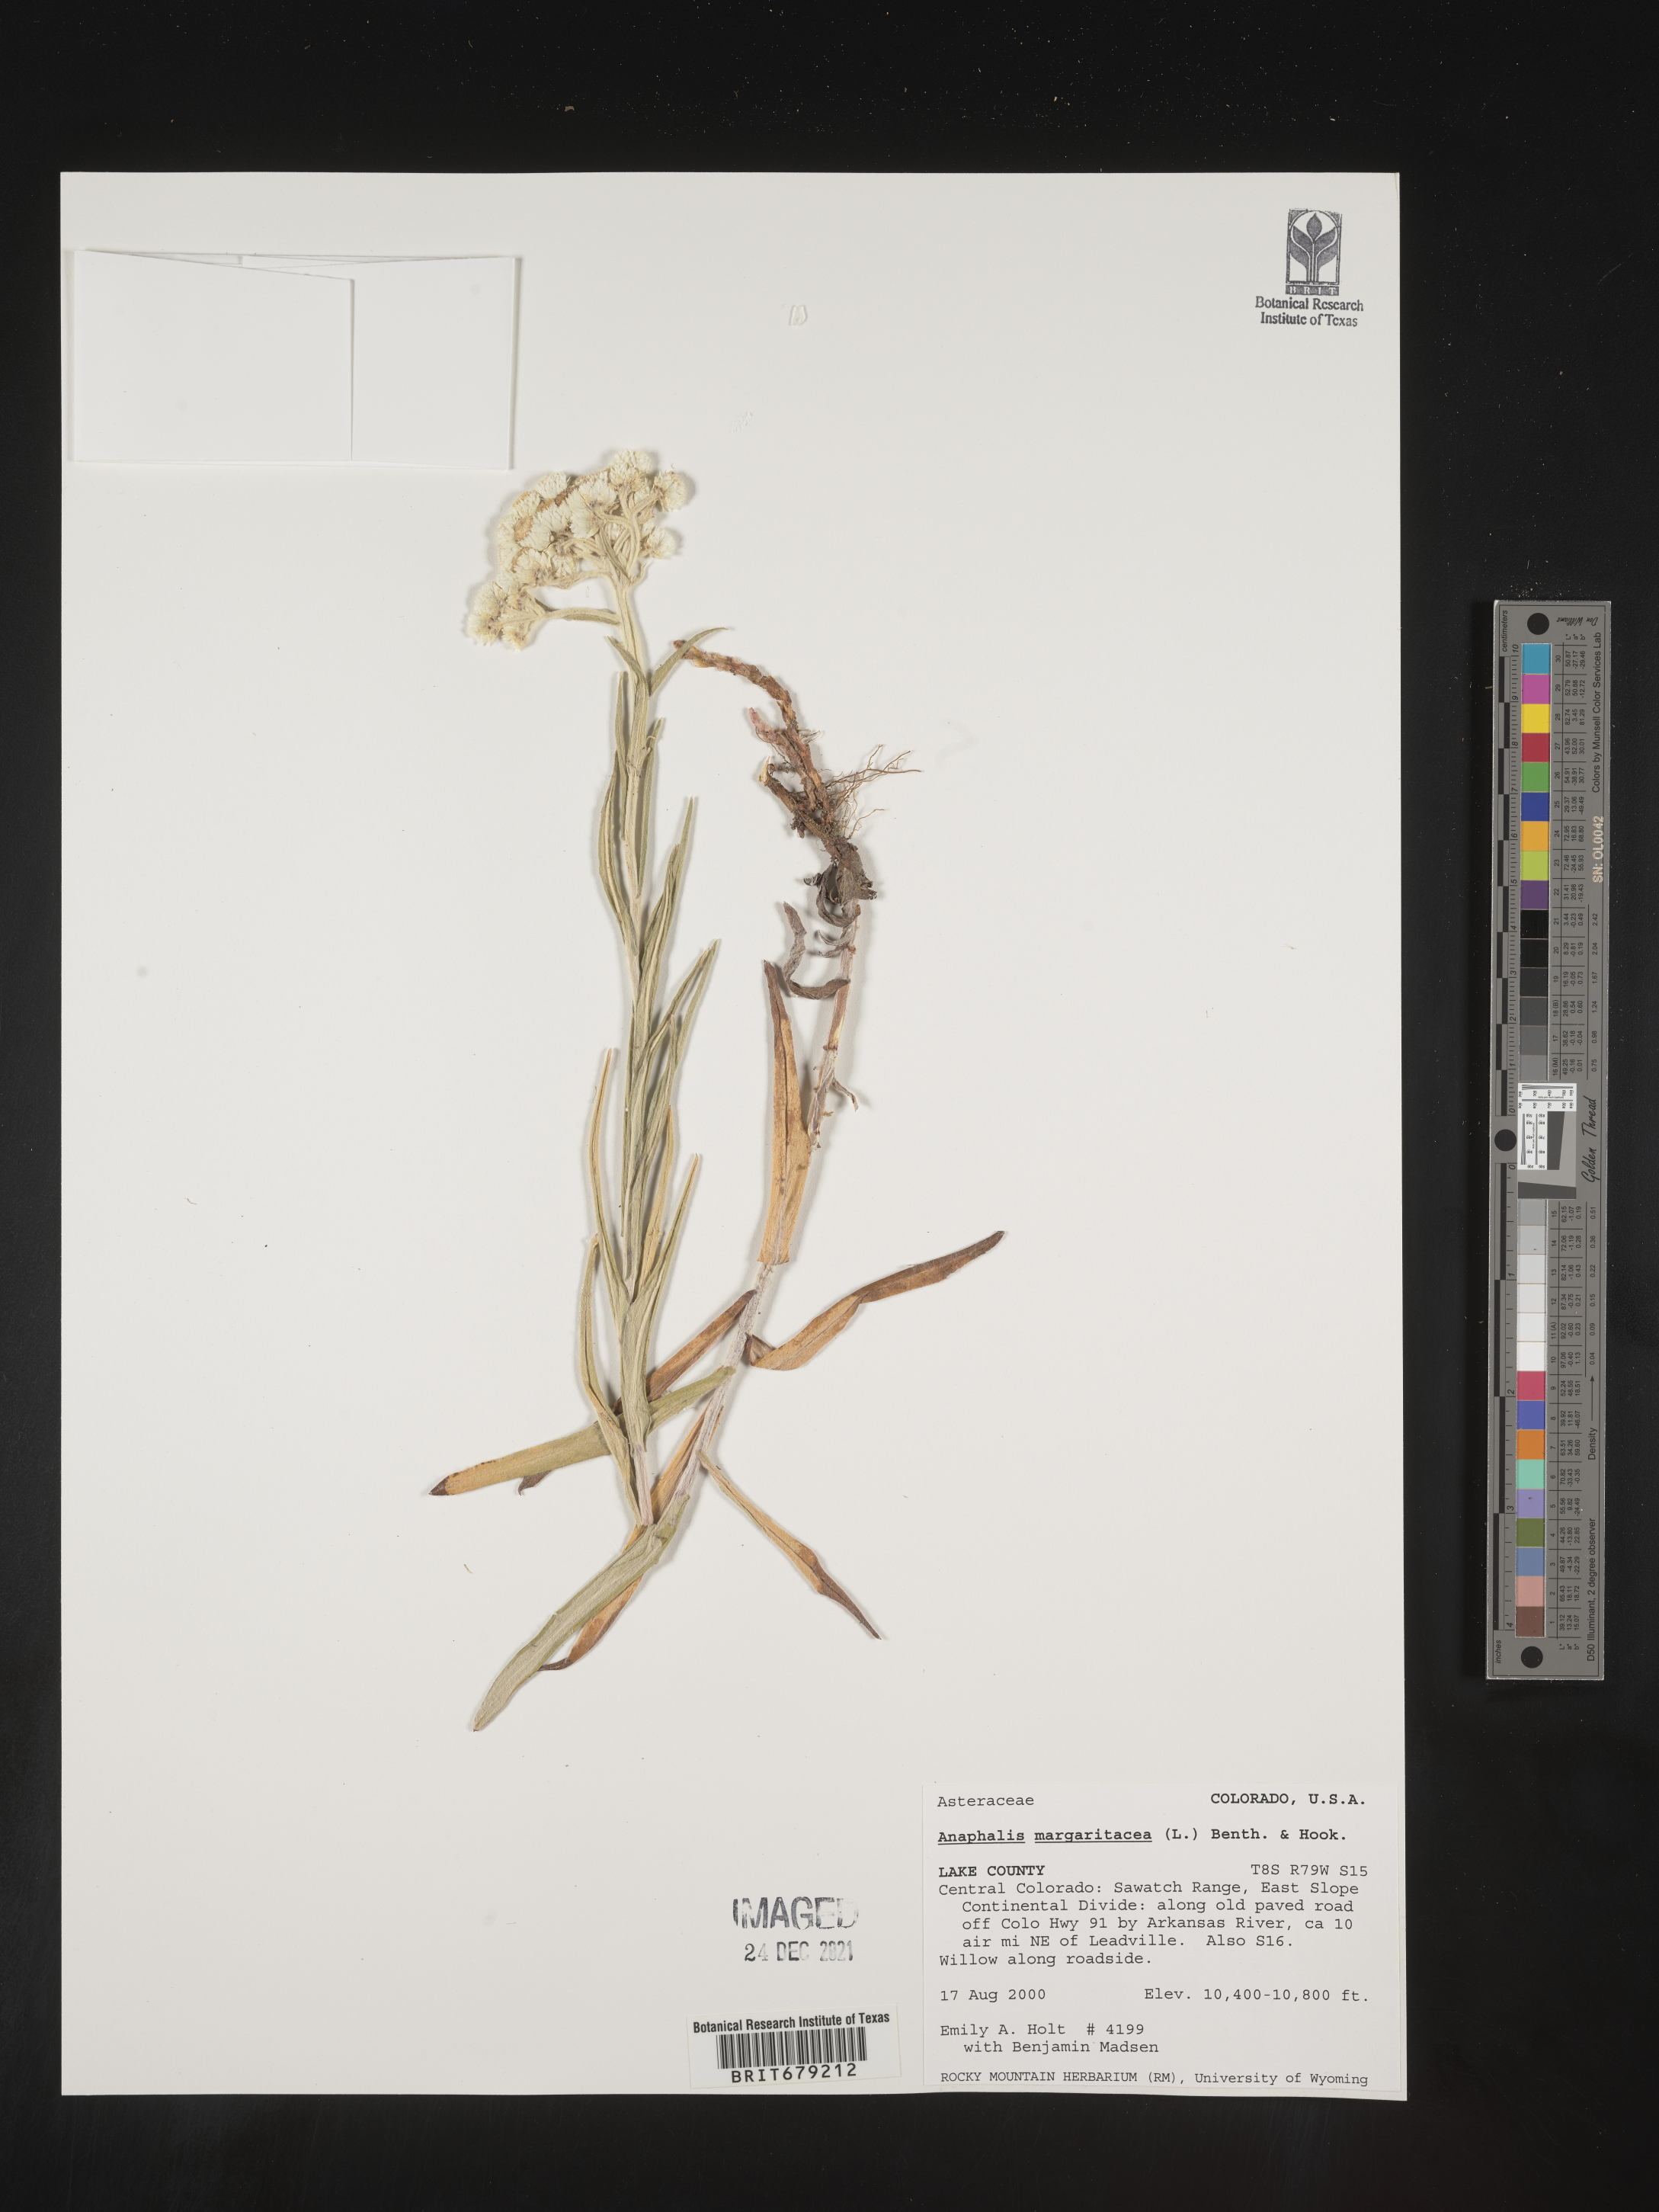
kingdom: Plantae
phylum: Tracheophyta
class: Magnoliopsida
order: Asterales
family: Asteraceae
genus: Anaphalis
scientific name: Anaphalis margaritacea
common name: Pearly everlasting
